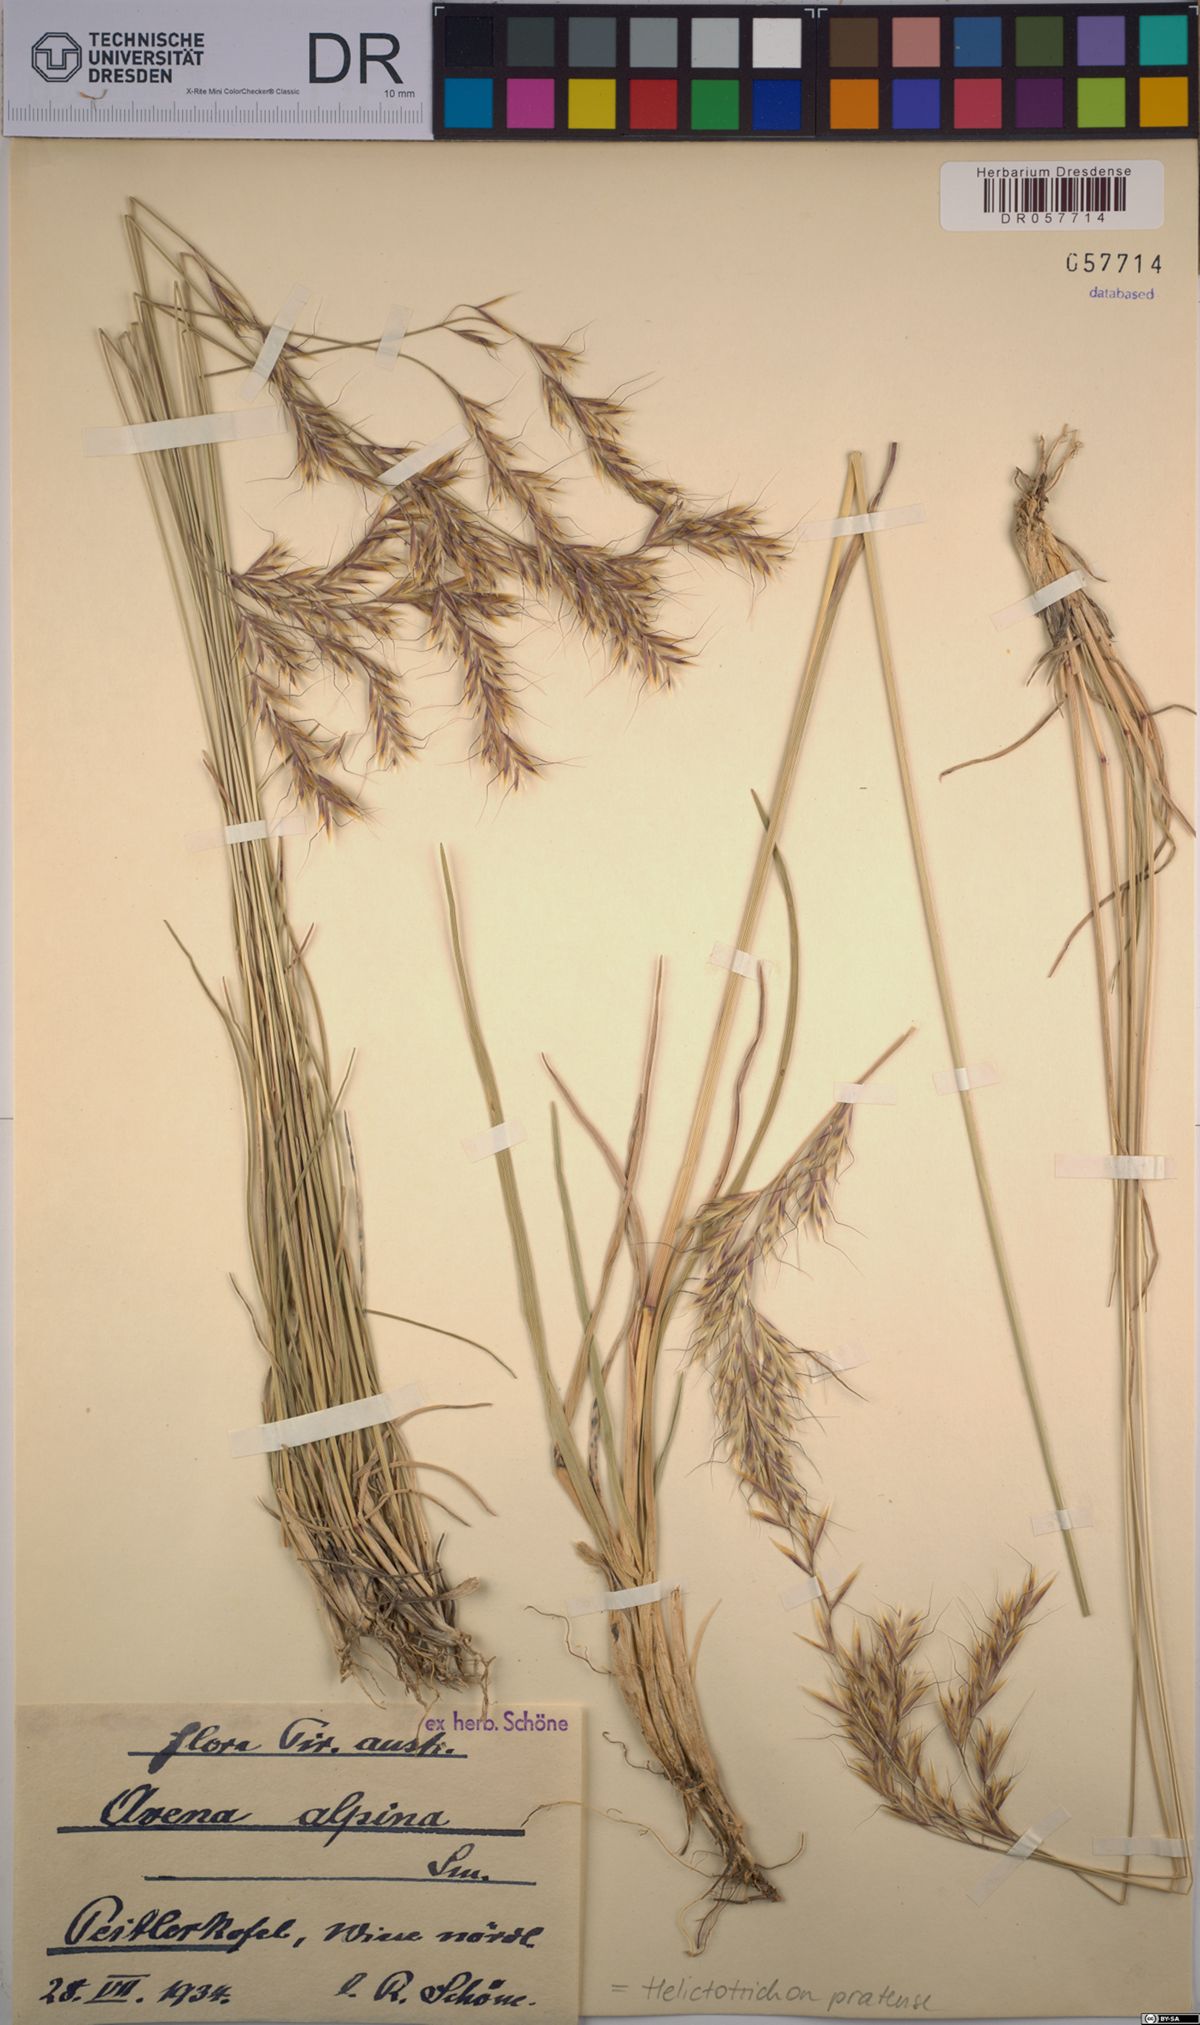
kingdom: Plantae
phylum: Tracheophyta
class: Liliopsida
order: Poales
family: Poaceae
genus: Helictochloa
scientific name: Helictochloa pratensis
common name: Meadow oat grass
